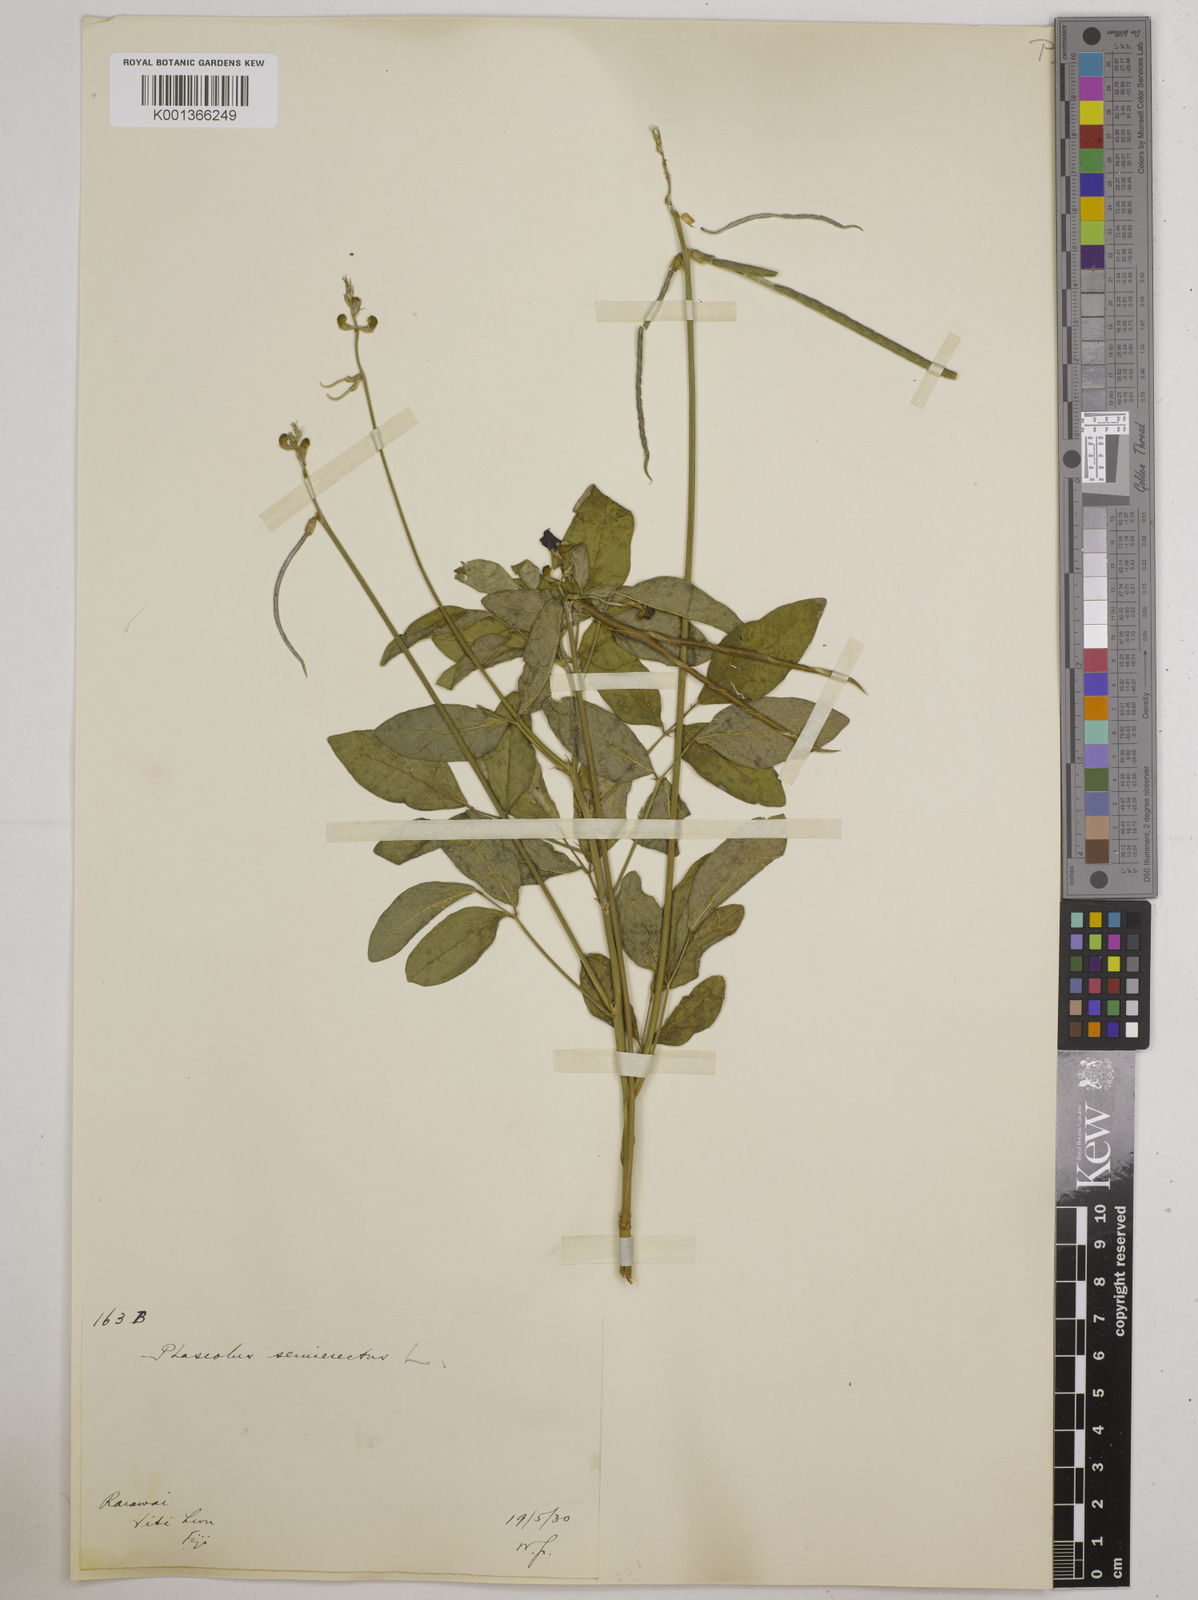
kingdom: Plantae
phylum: Tracheophyta
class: Magnoliopsida
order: Fabales
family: Fabaceae
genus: Macroptilium
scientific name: Macroptilium lathyroides
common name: Wild bushbean
